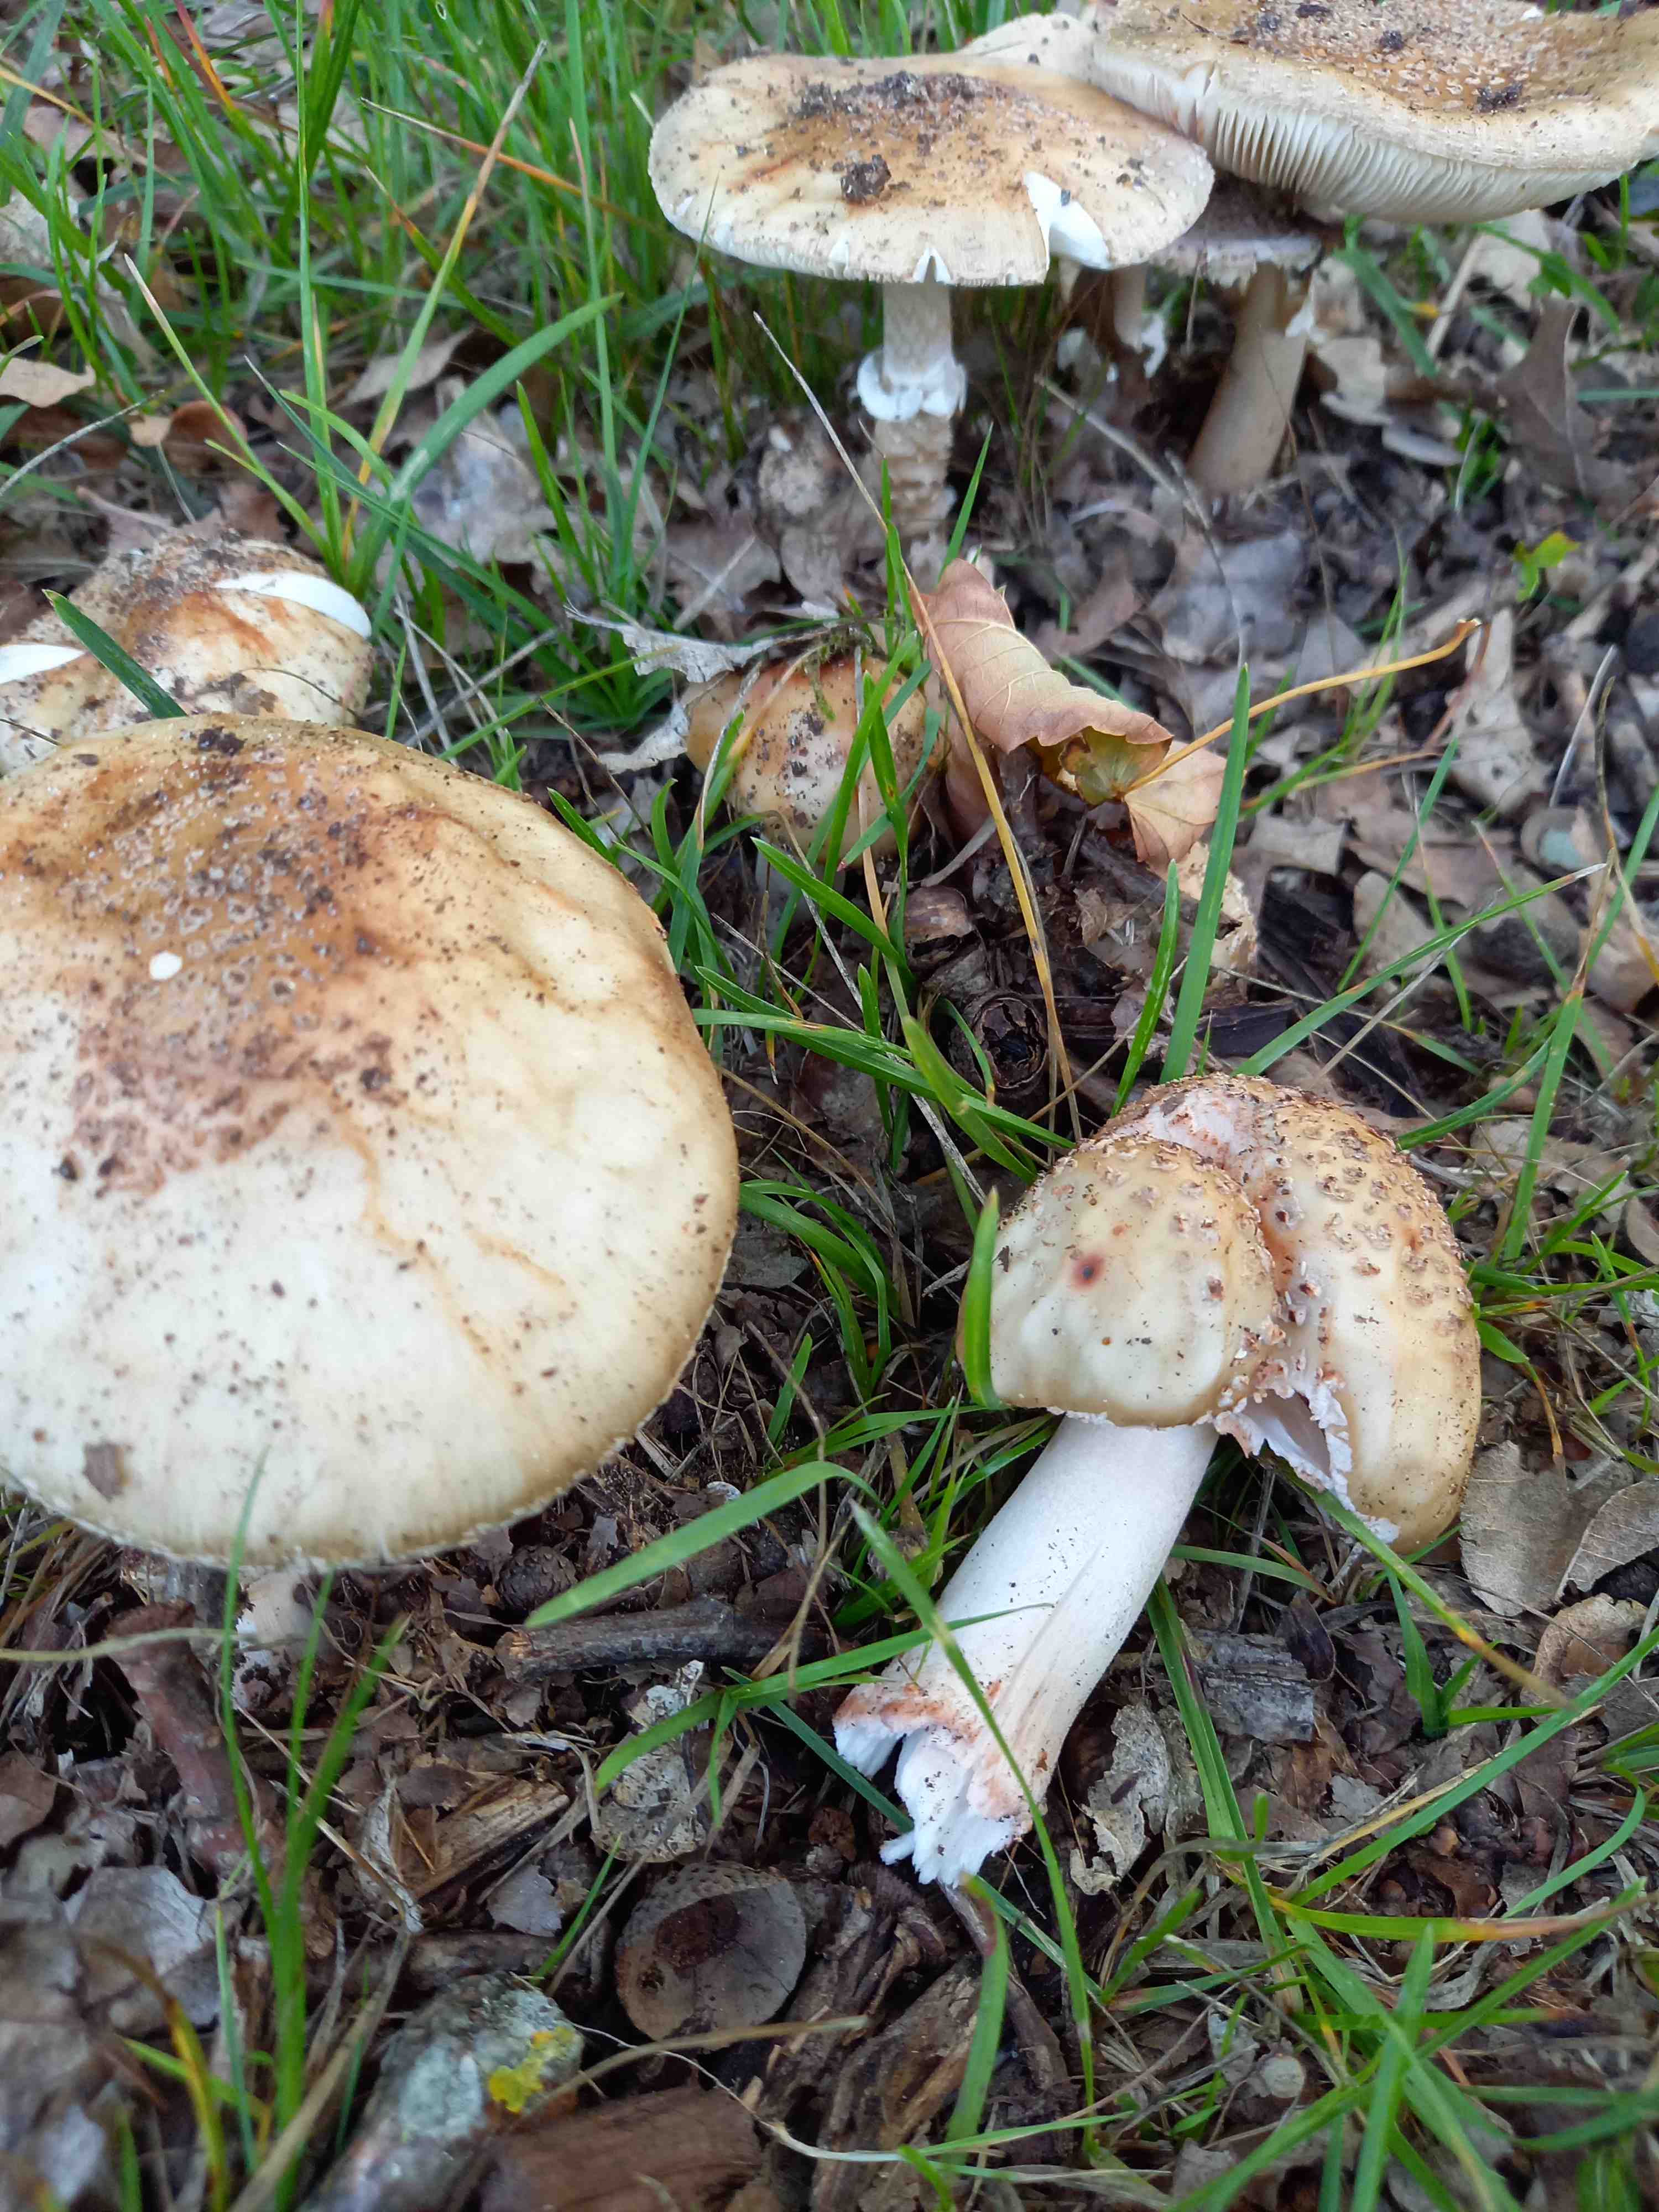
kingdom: Fungi
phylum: Basidiomycota
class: Agaricomycetes
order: Agaricales
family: Amanitaceae
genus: Amanita
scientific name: Amanita rubescens
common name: rødmende fluesvamp
